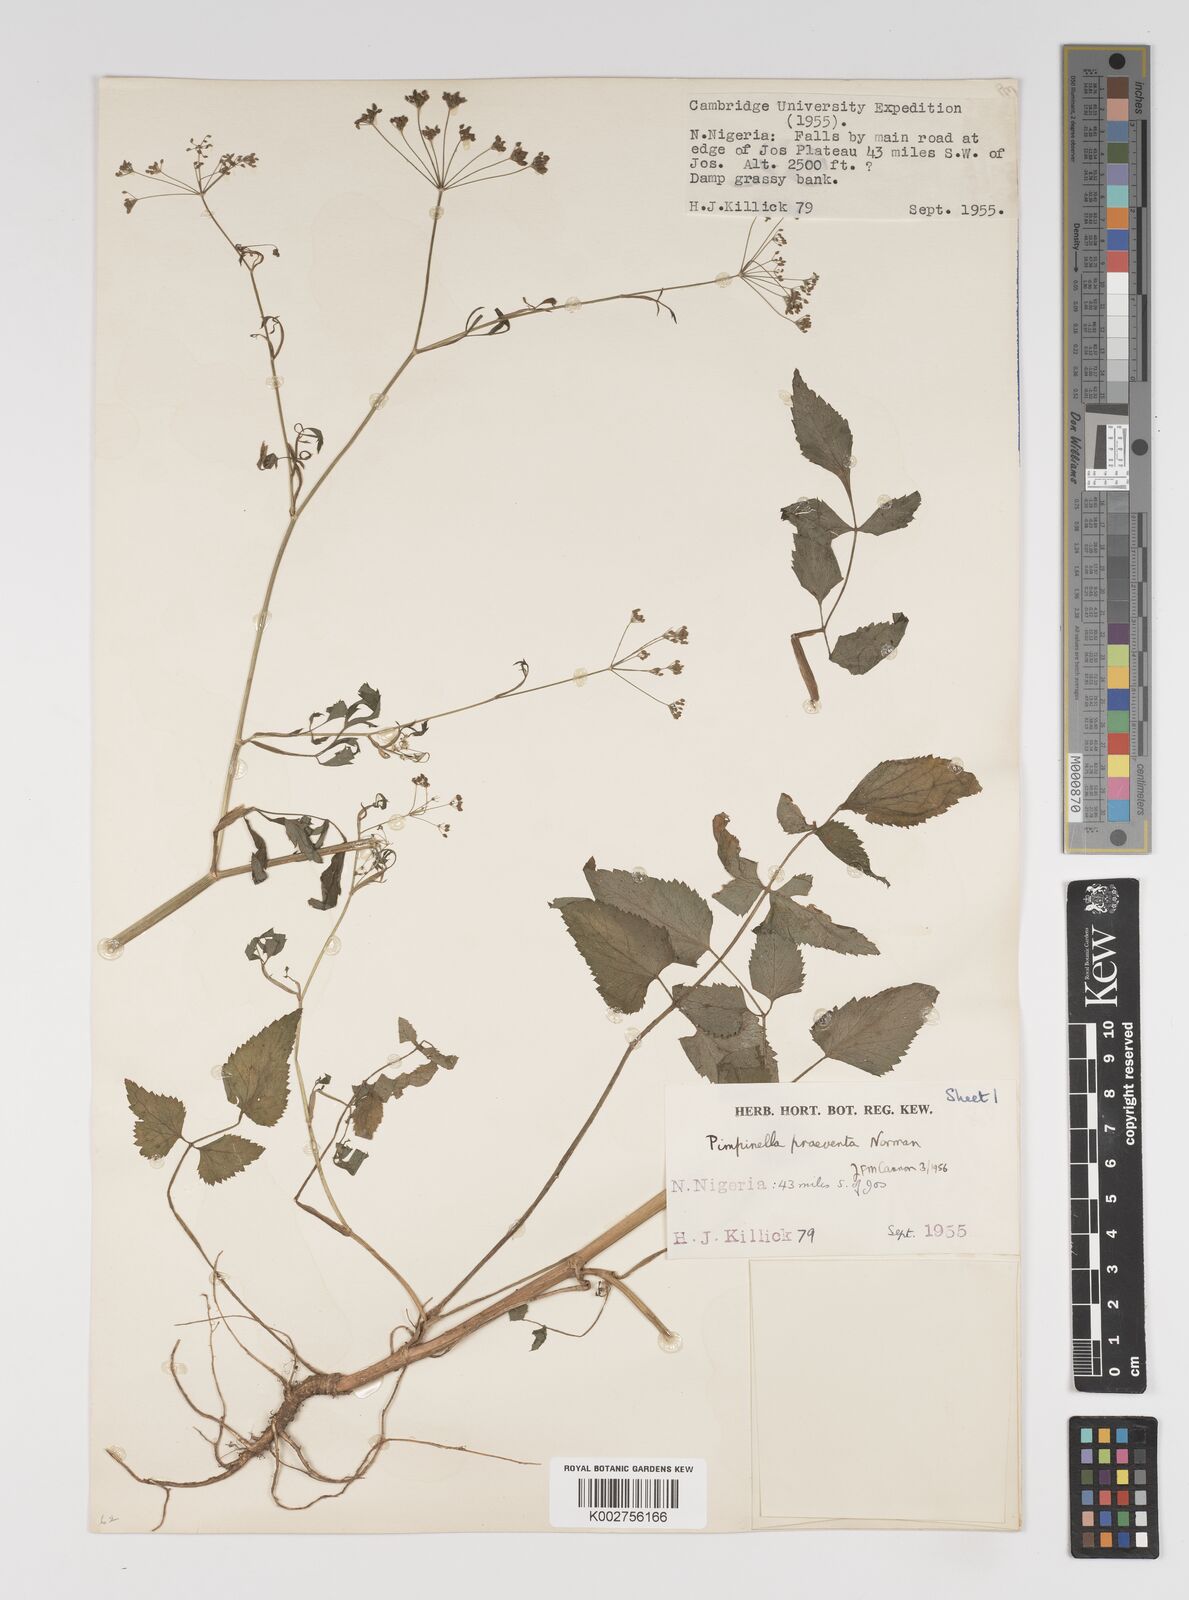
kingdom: Plantae
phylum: Tracheophyta
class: Magnoliopsida
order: Apiales
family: Apiaceae
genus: Pimpinella
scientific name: Pimpinella hirtella
